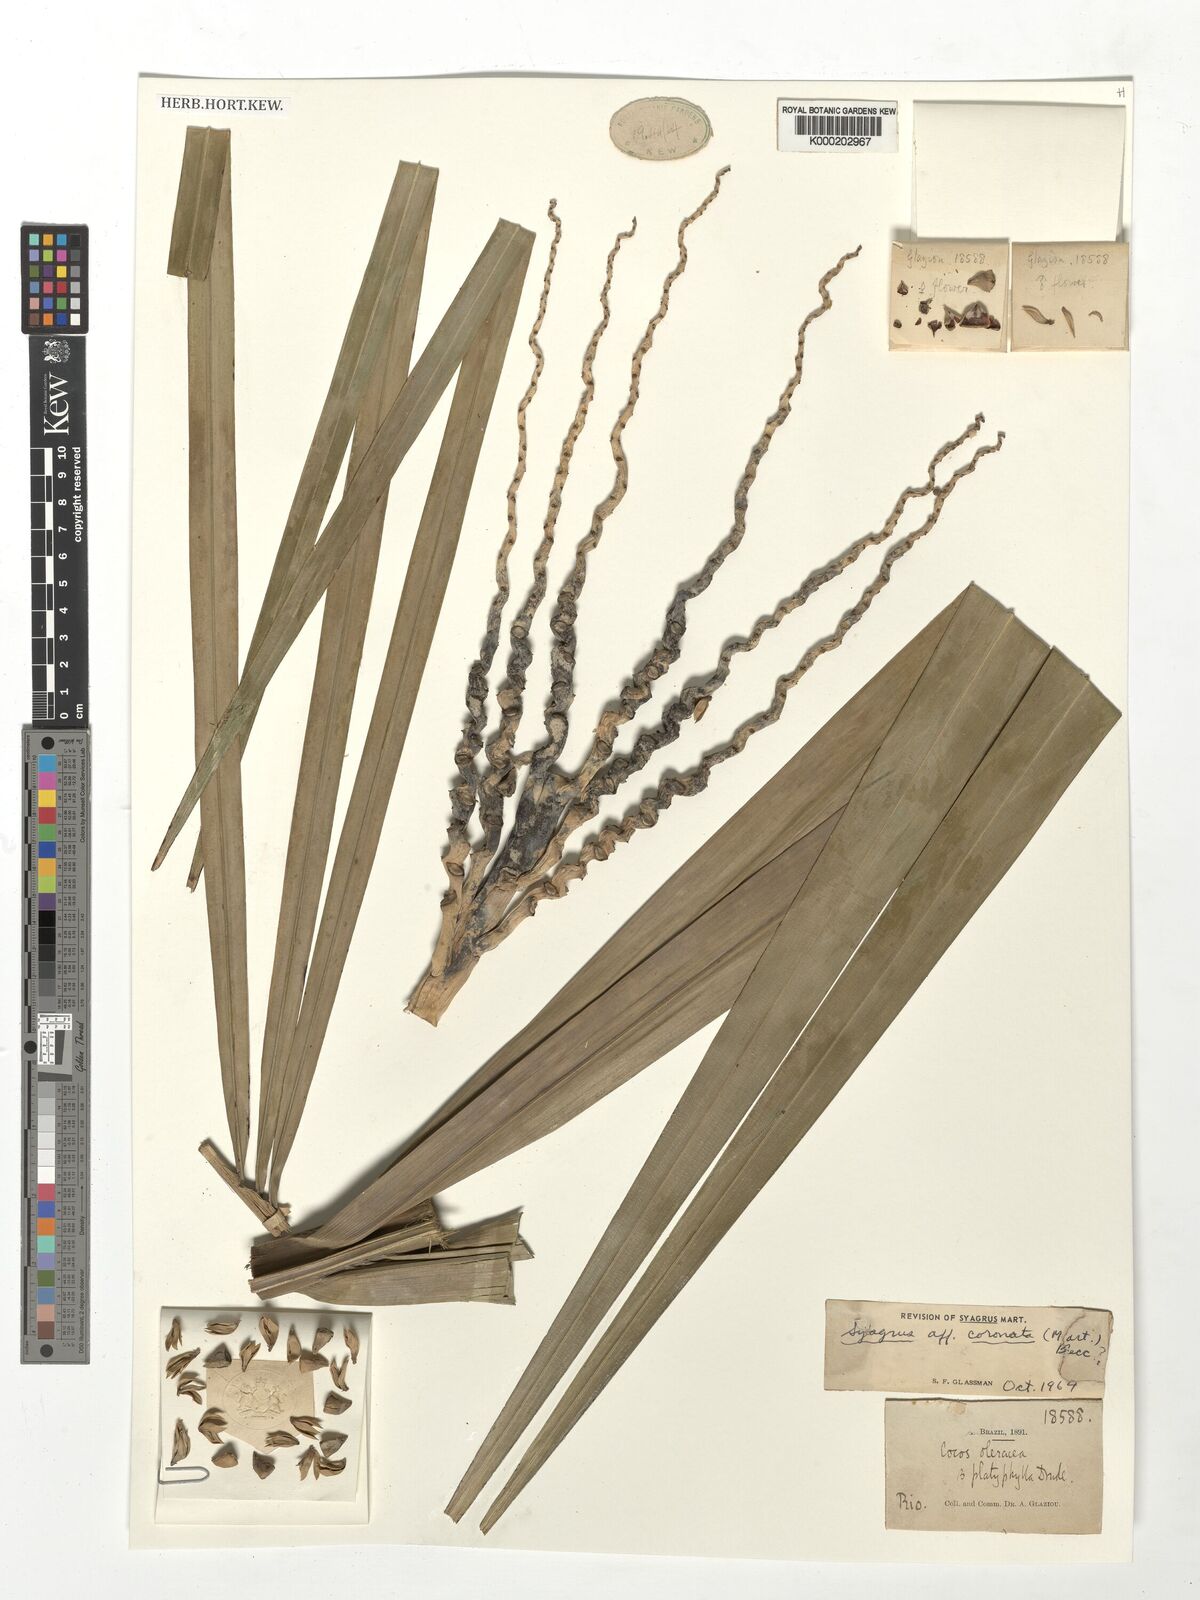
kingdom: Plantae
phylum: Tracheophyta
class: Liliopsida
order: Arecales
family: Arecaceae
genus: Syagrus
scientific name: Syagrus coronata
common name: Licuri palm
